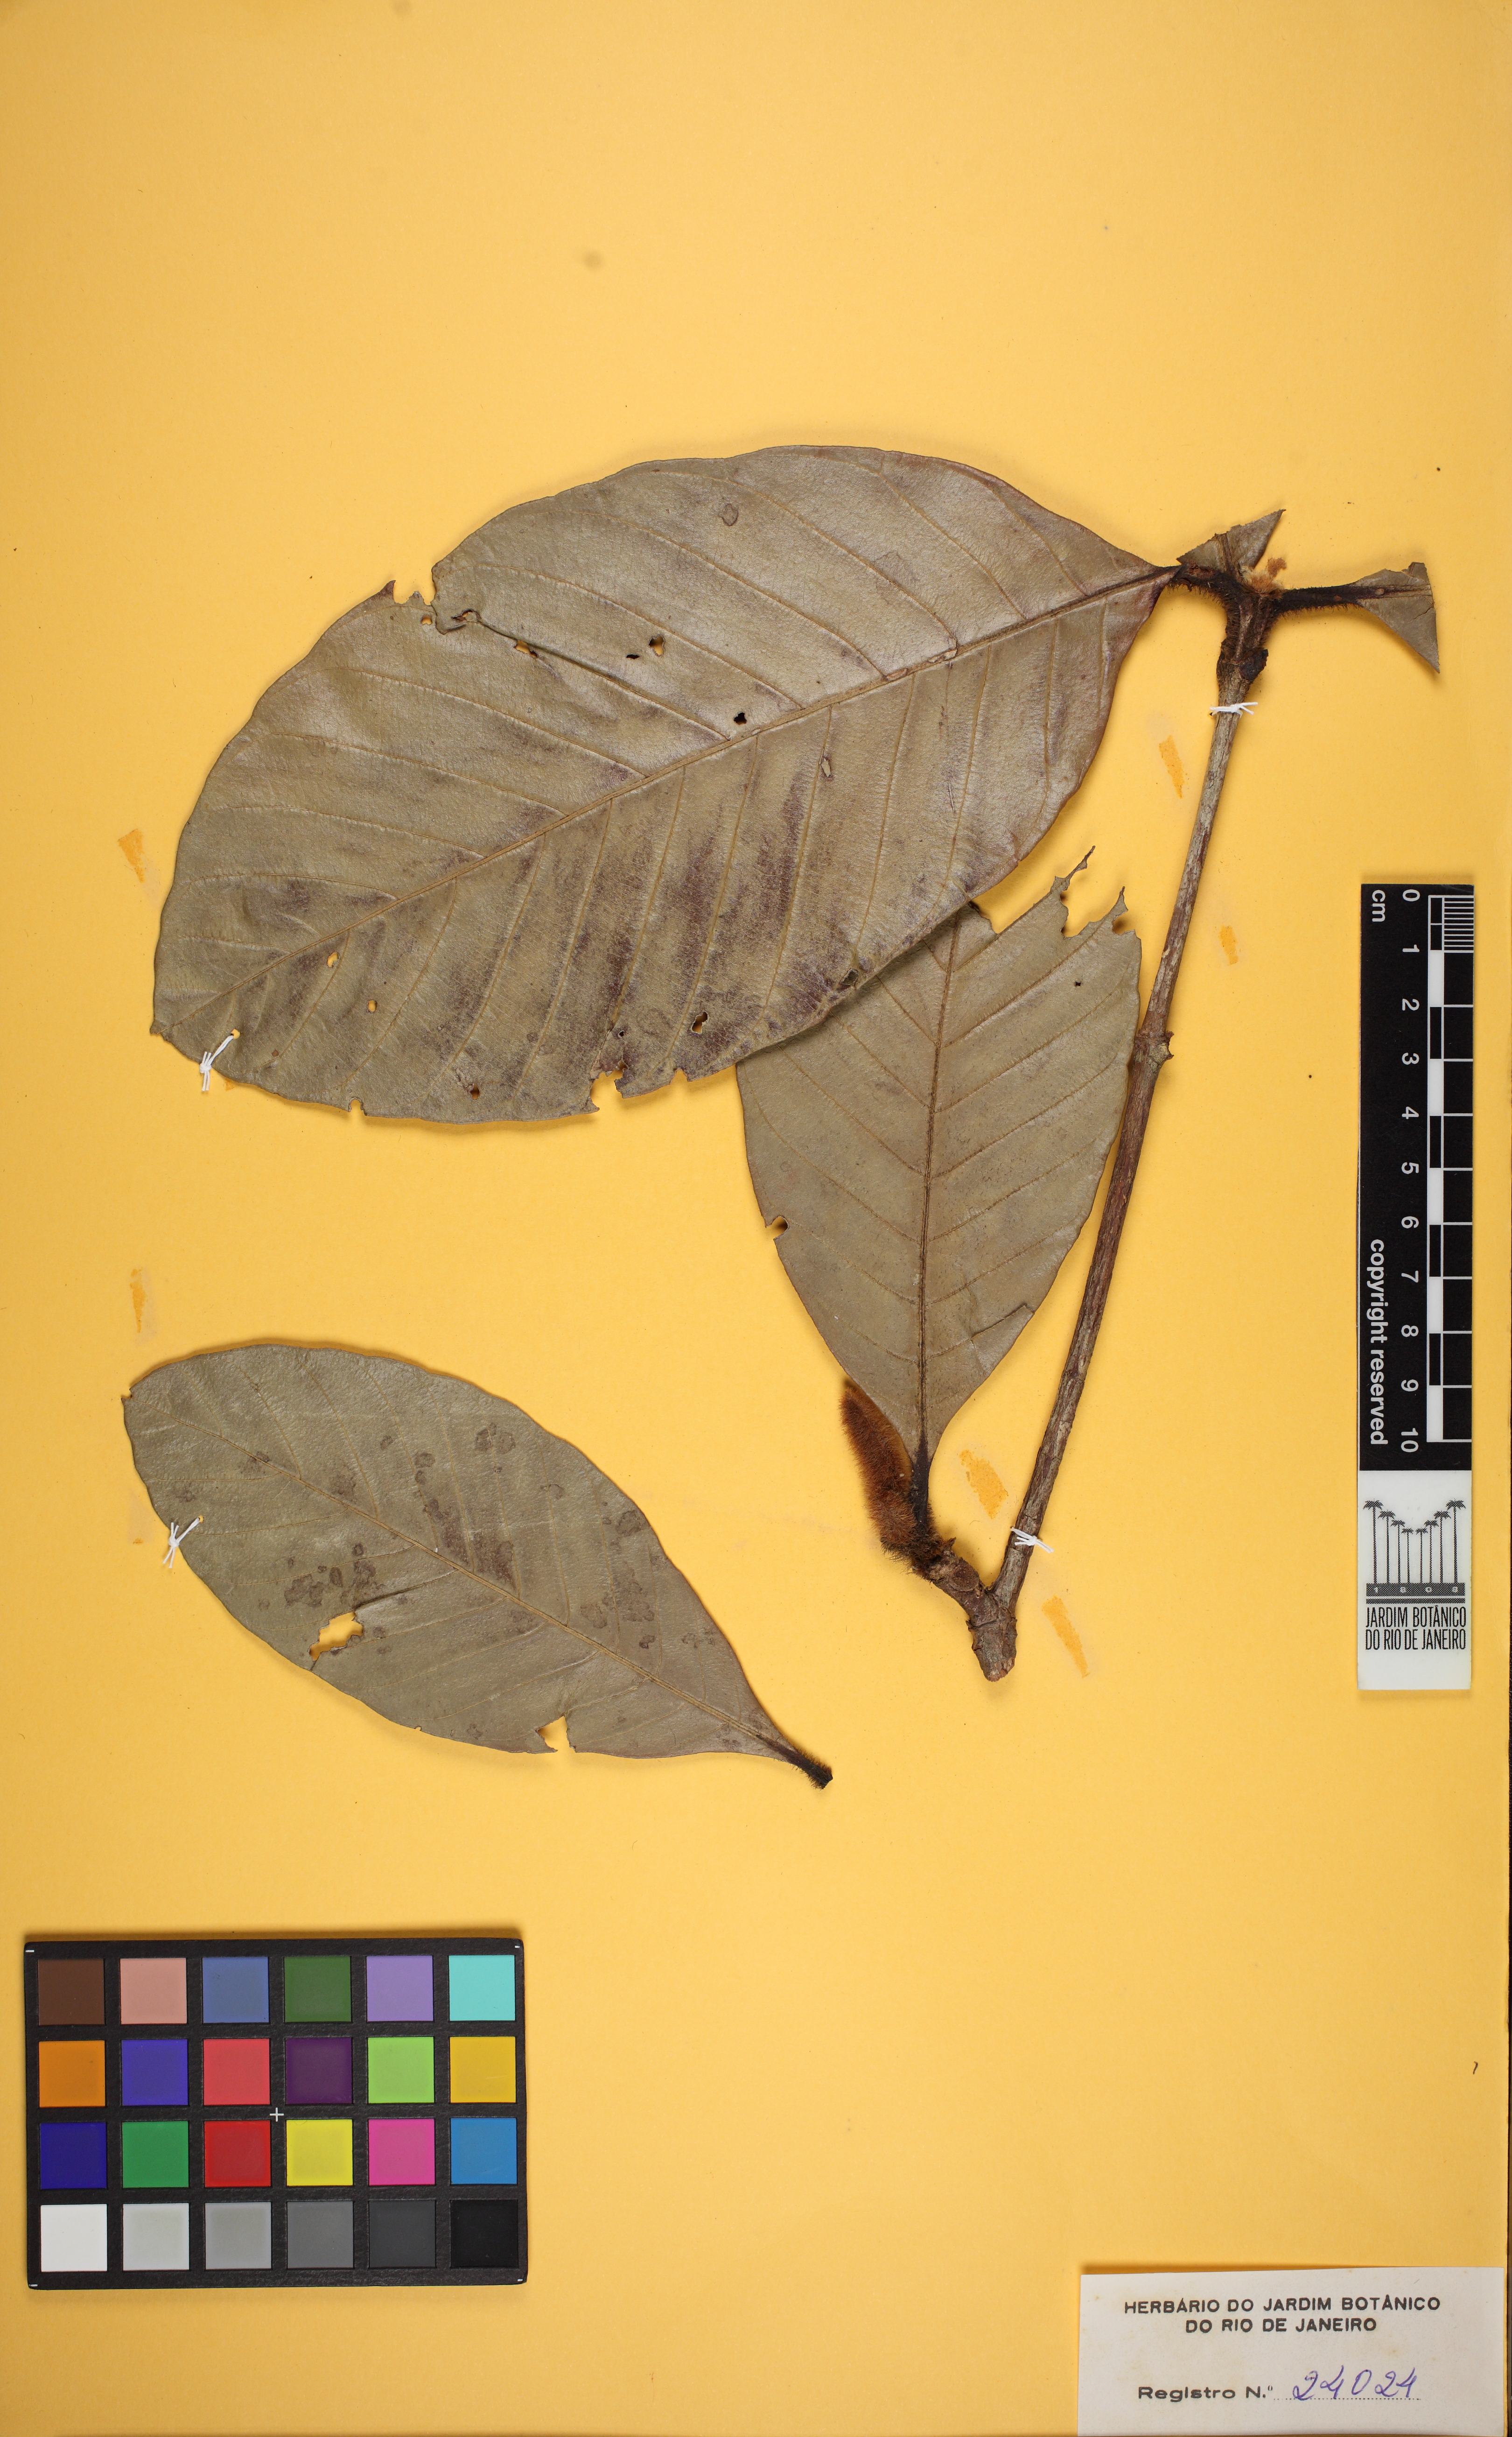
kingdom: Plantae
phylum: Tracheophyta
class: Magnoliopsida
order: Gentianales
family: Rubiaceae
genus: Duroia
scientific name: Duroia eriopila
